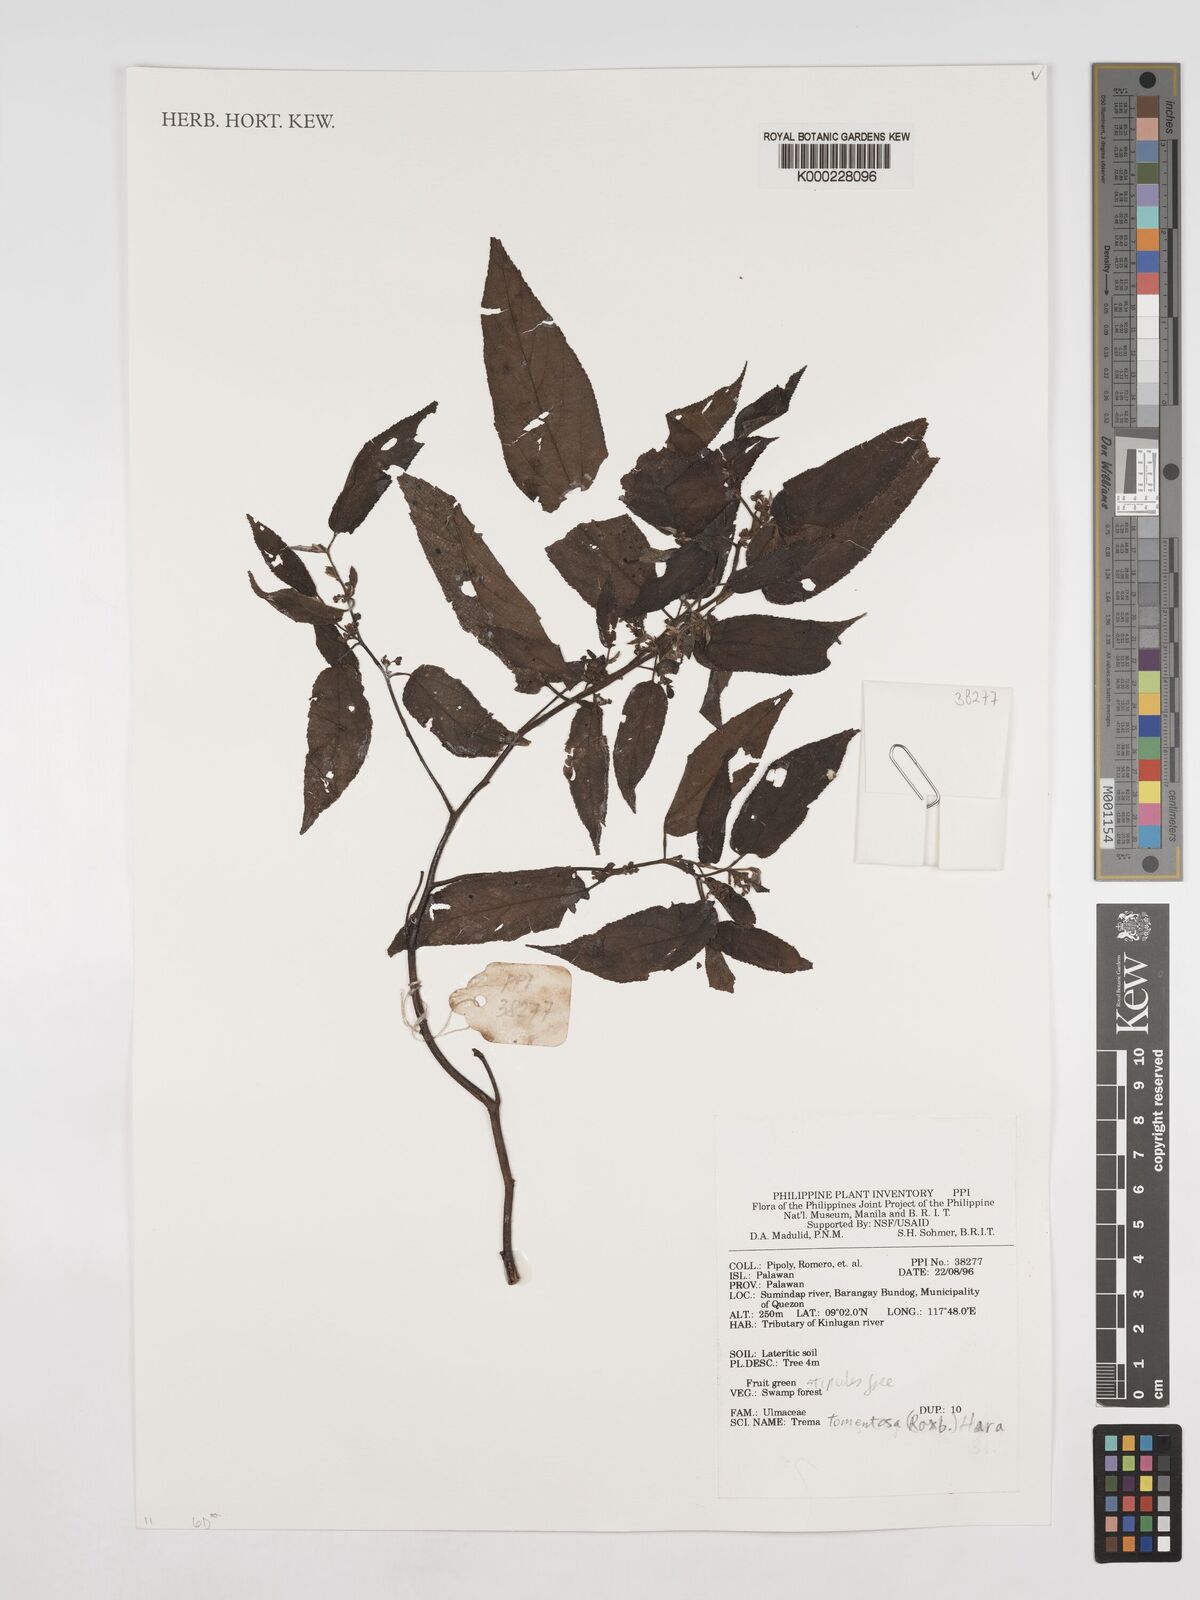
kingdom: Plantae
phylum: Tracheophyta
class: Magnoliopsida
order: Rosales
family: Cannabaceae
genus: Trema
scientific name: Trema tomentosum
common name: Peach-leaf-poisonbush
